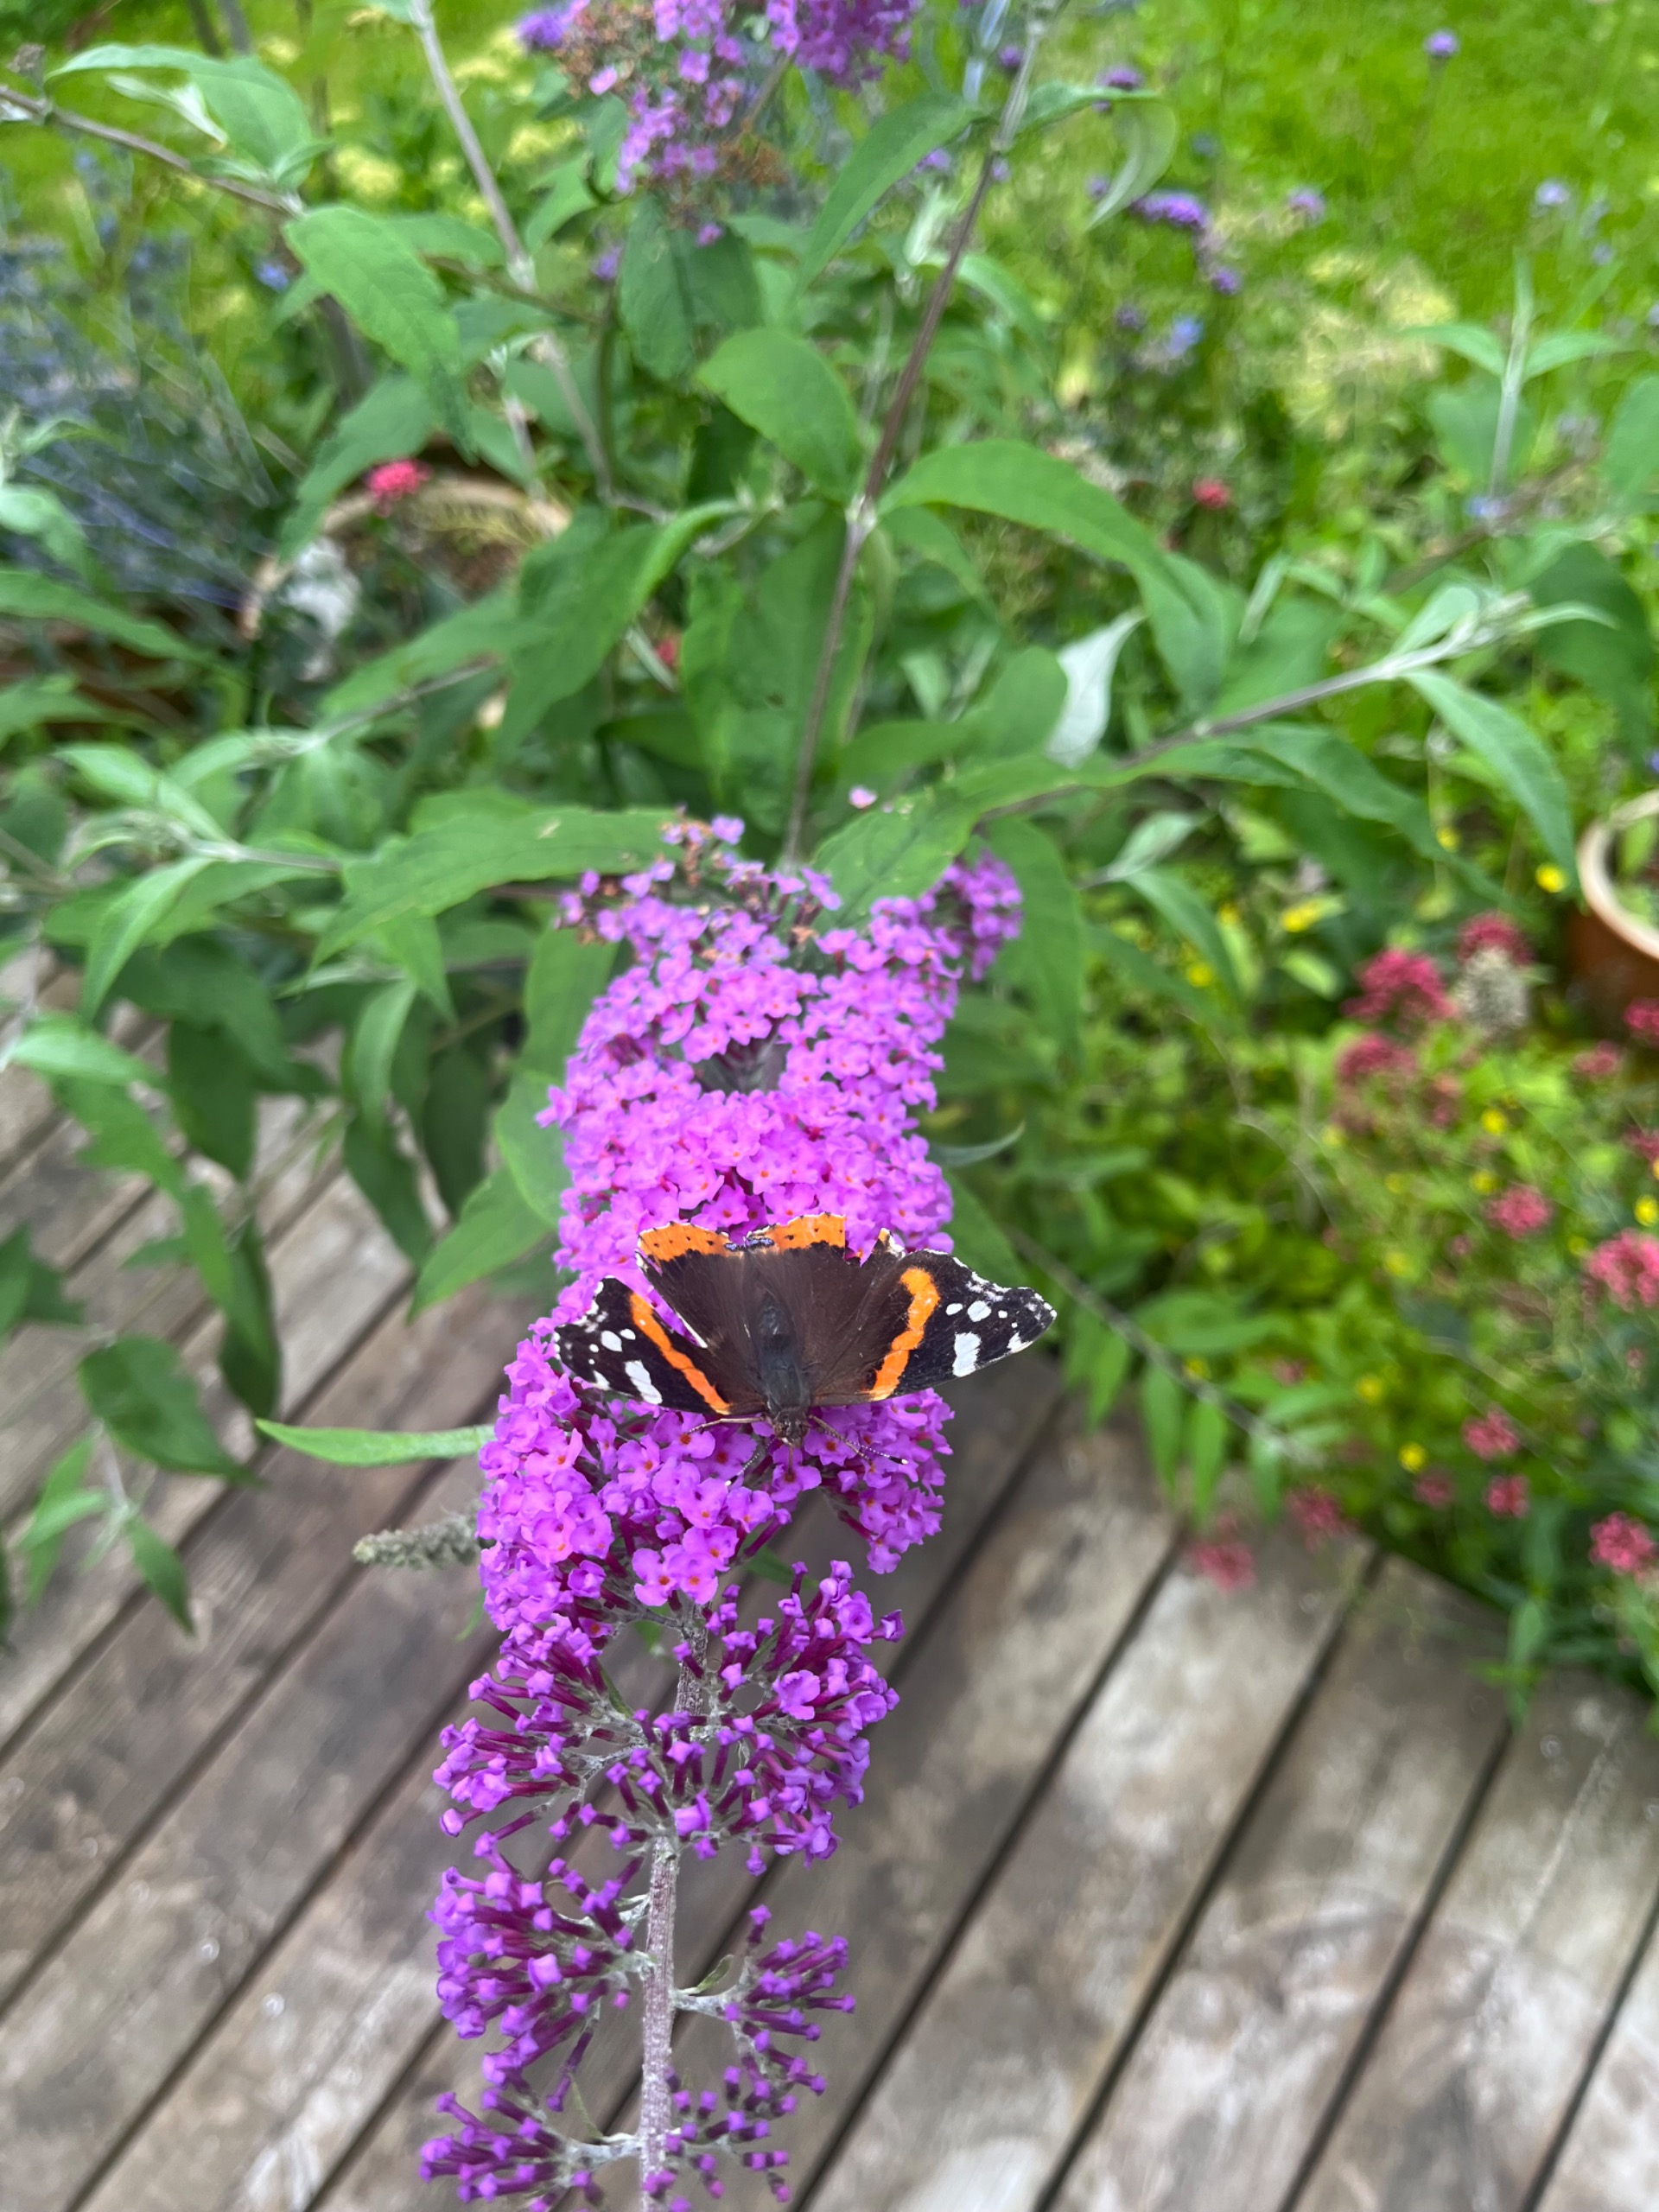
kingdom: Animalia
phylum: Arthropoda
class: Insecta
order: Lepidoptera
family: Nymphalidae
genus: Vanessa
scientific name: Vanessa atalanta
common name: Admiral
